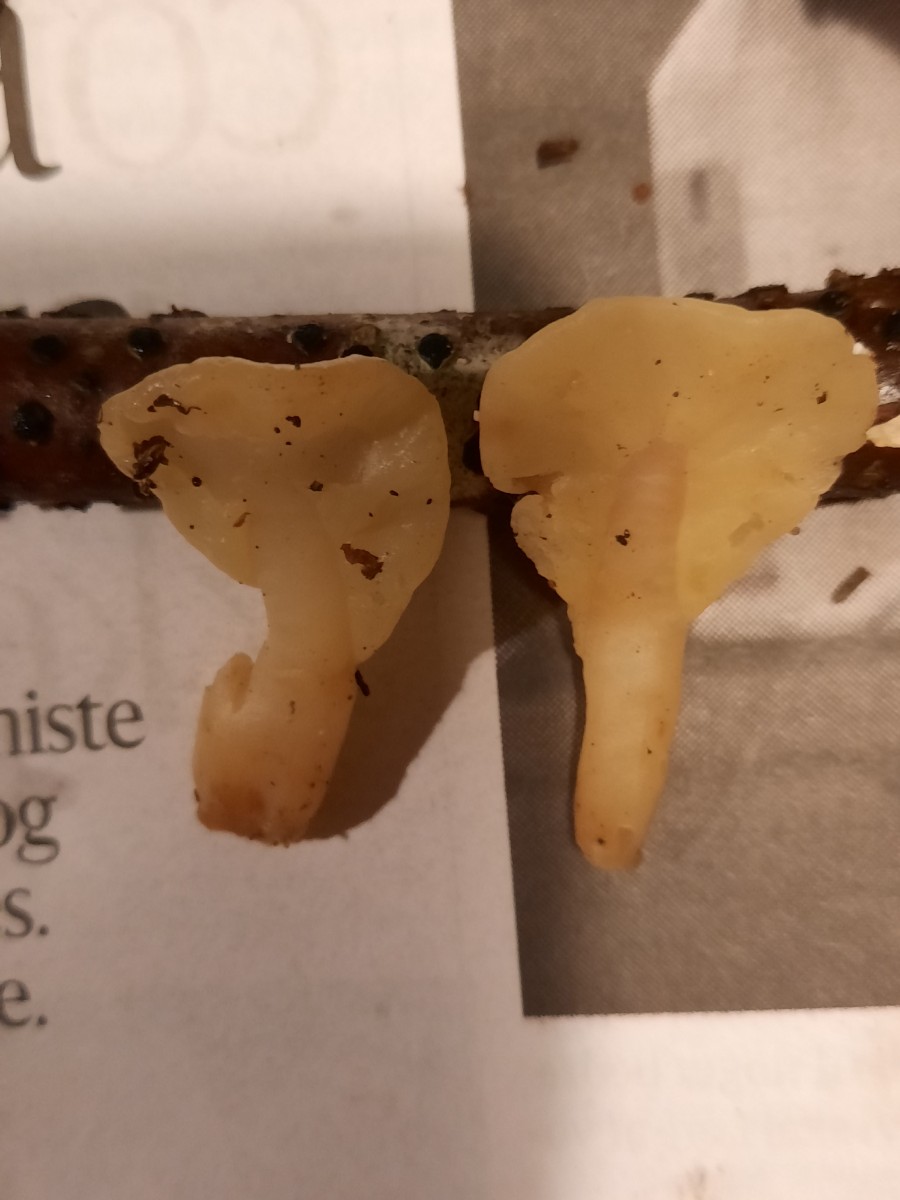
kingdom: Fungi
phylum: Ascomycota
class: Leotiomycetes
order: Rhytismatales
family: Cudoniaceae
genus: Spathularia
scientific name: Spathularia flavida
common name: gul spatelsvamp
